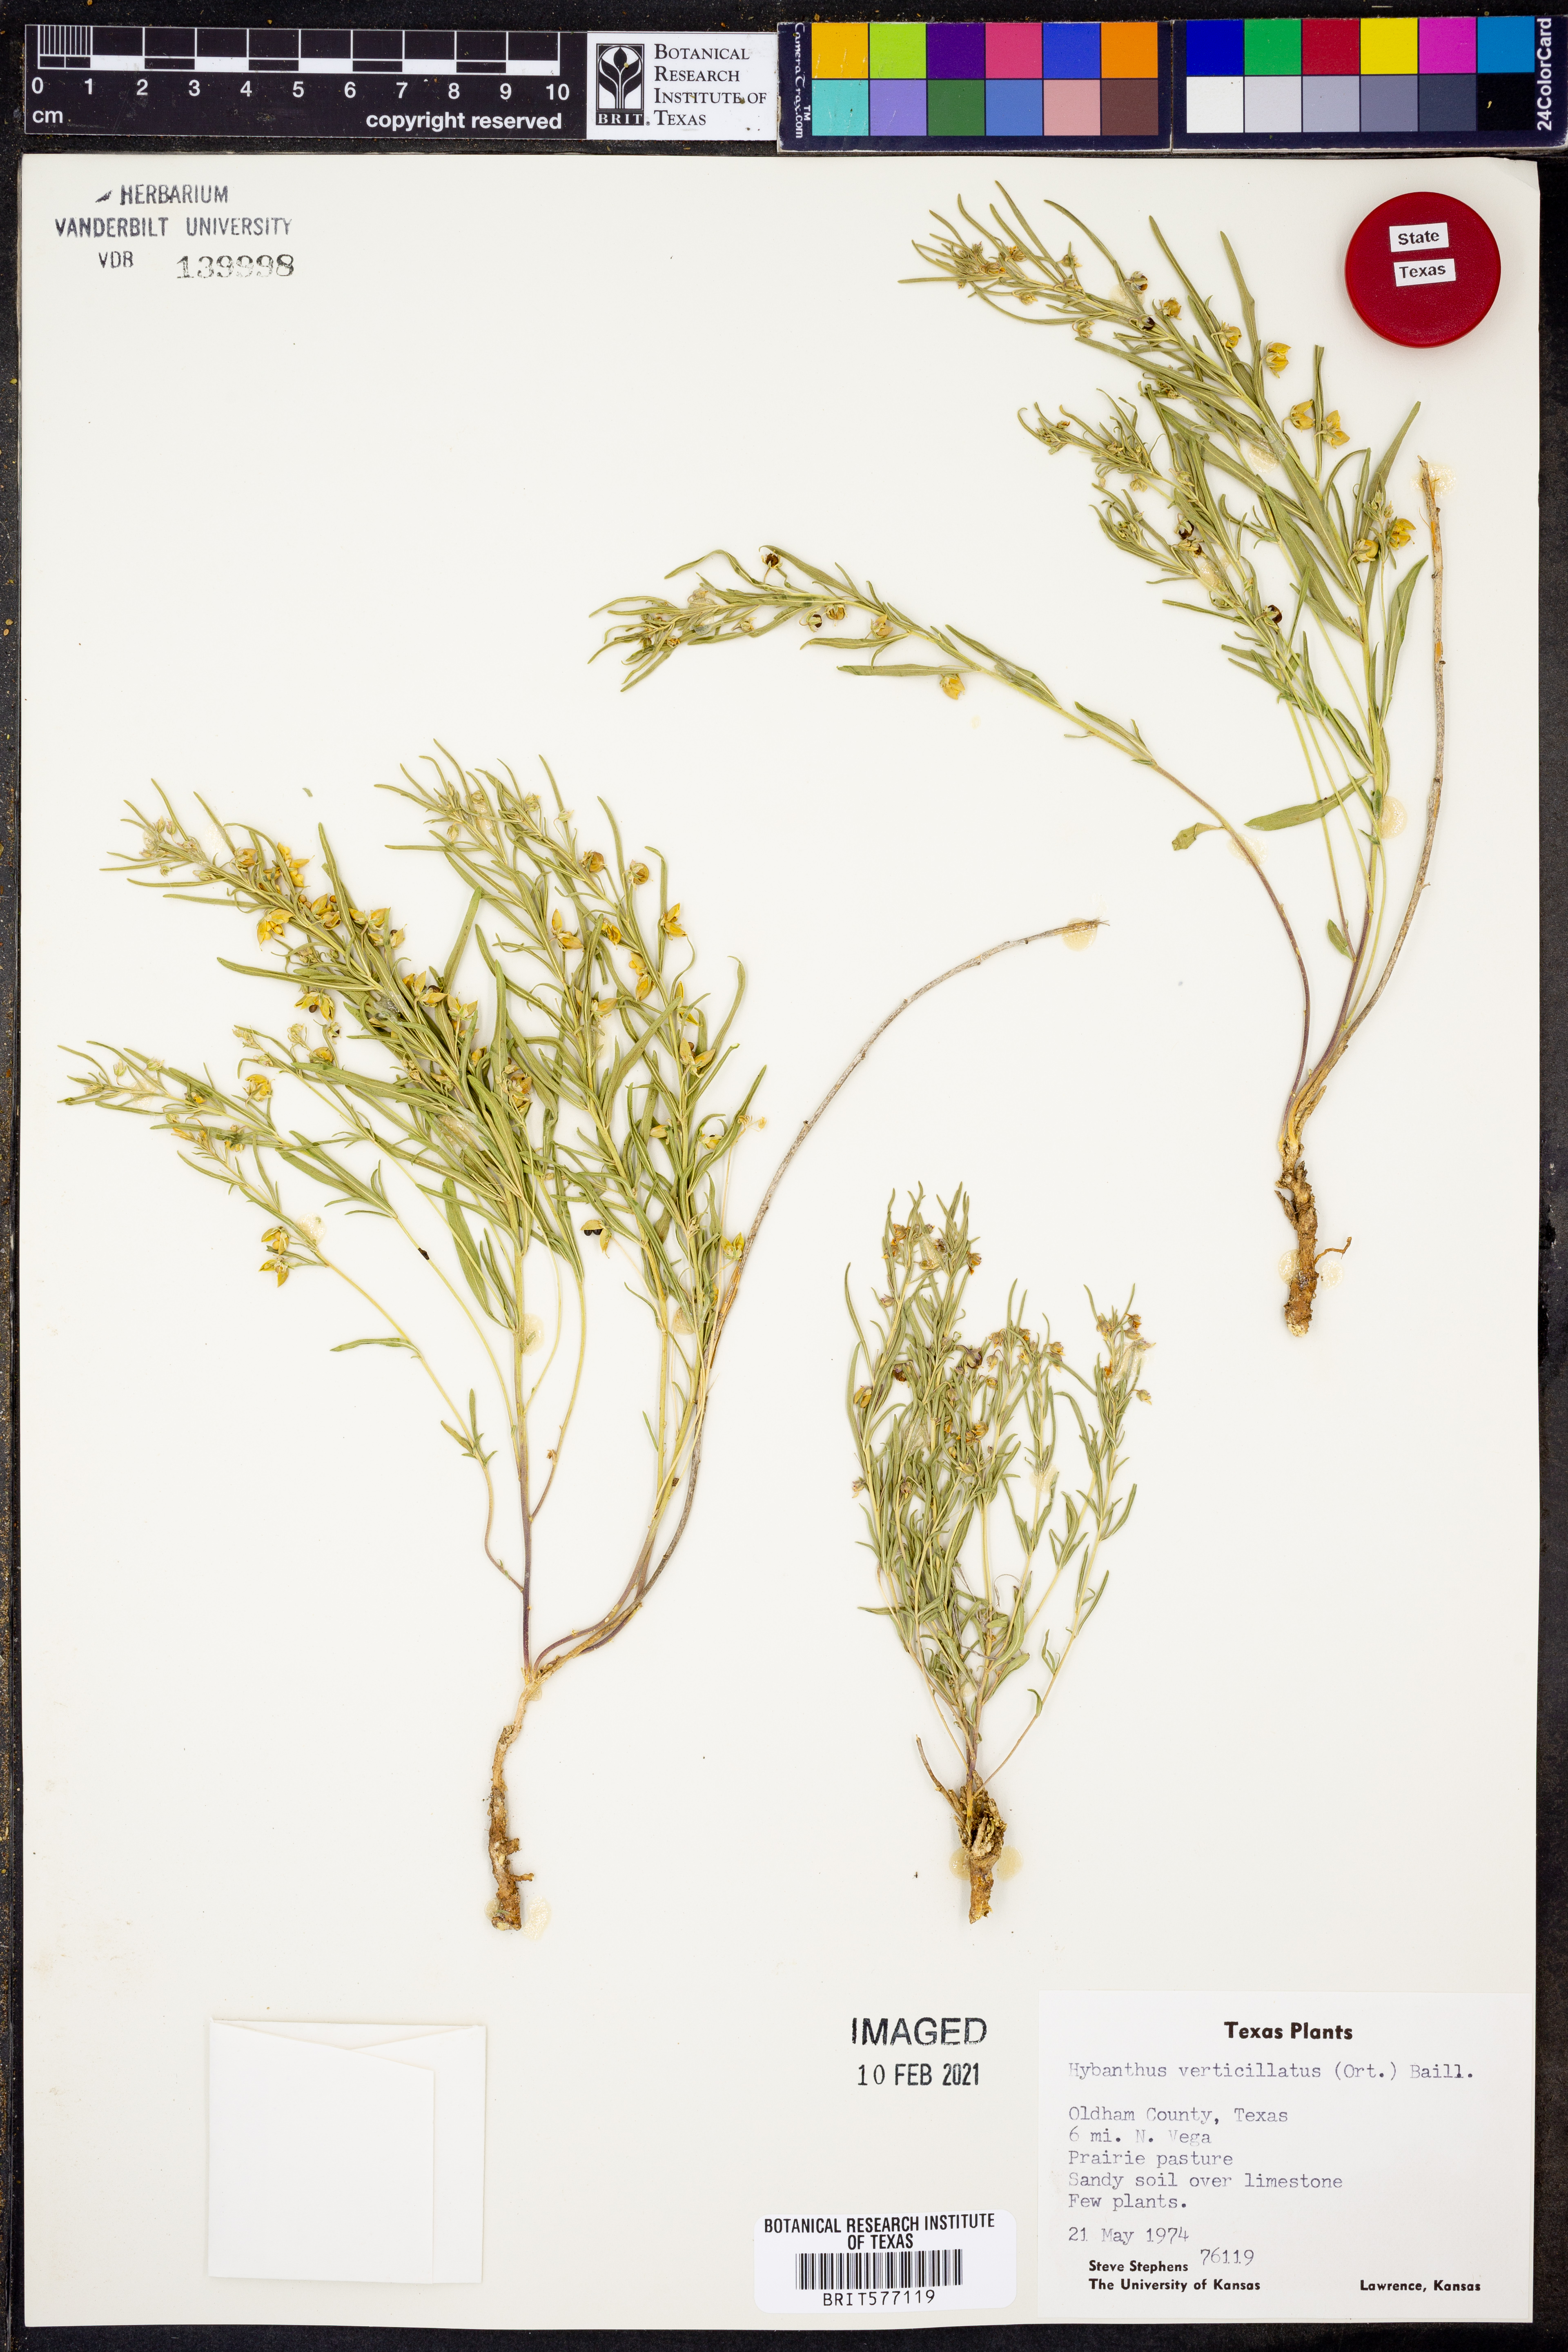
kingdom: Plantae
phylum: Tracheophyta
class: Magnoliopsida
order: Malpighiales
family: Violaceae
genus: Pombalia
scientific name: Pombalia verticillata
